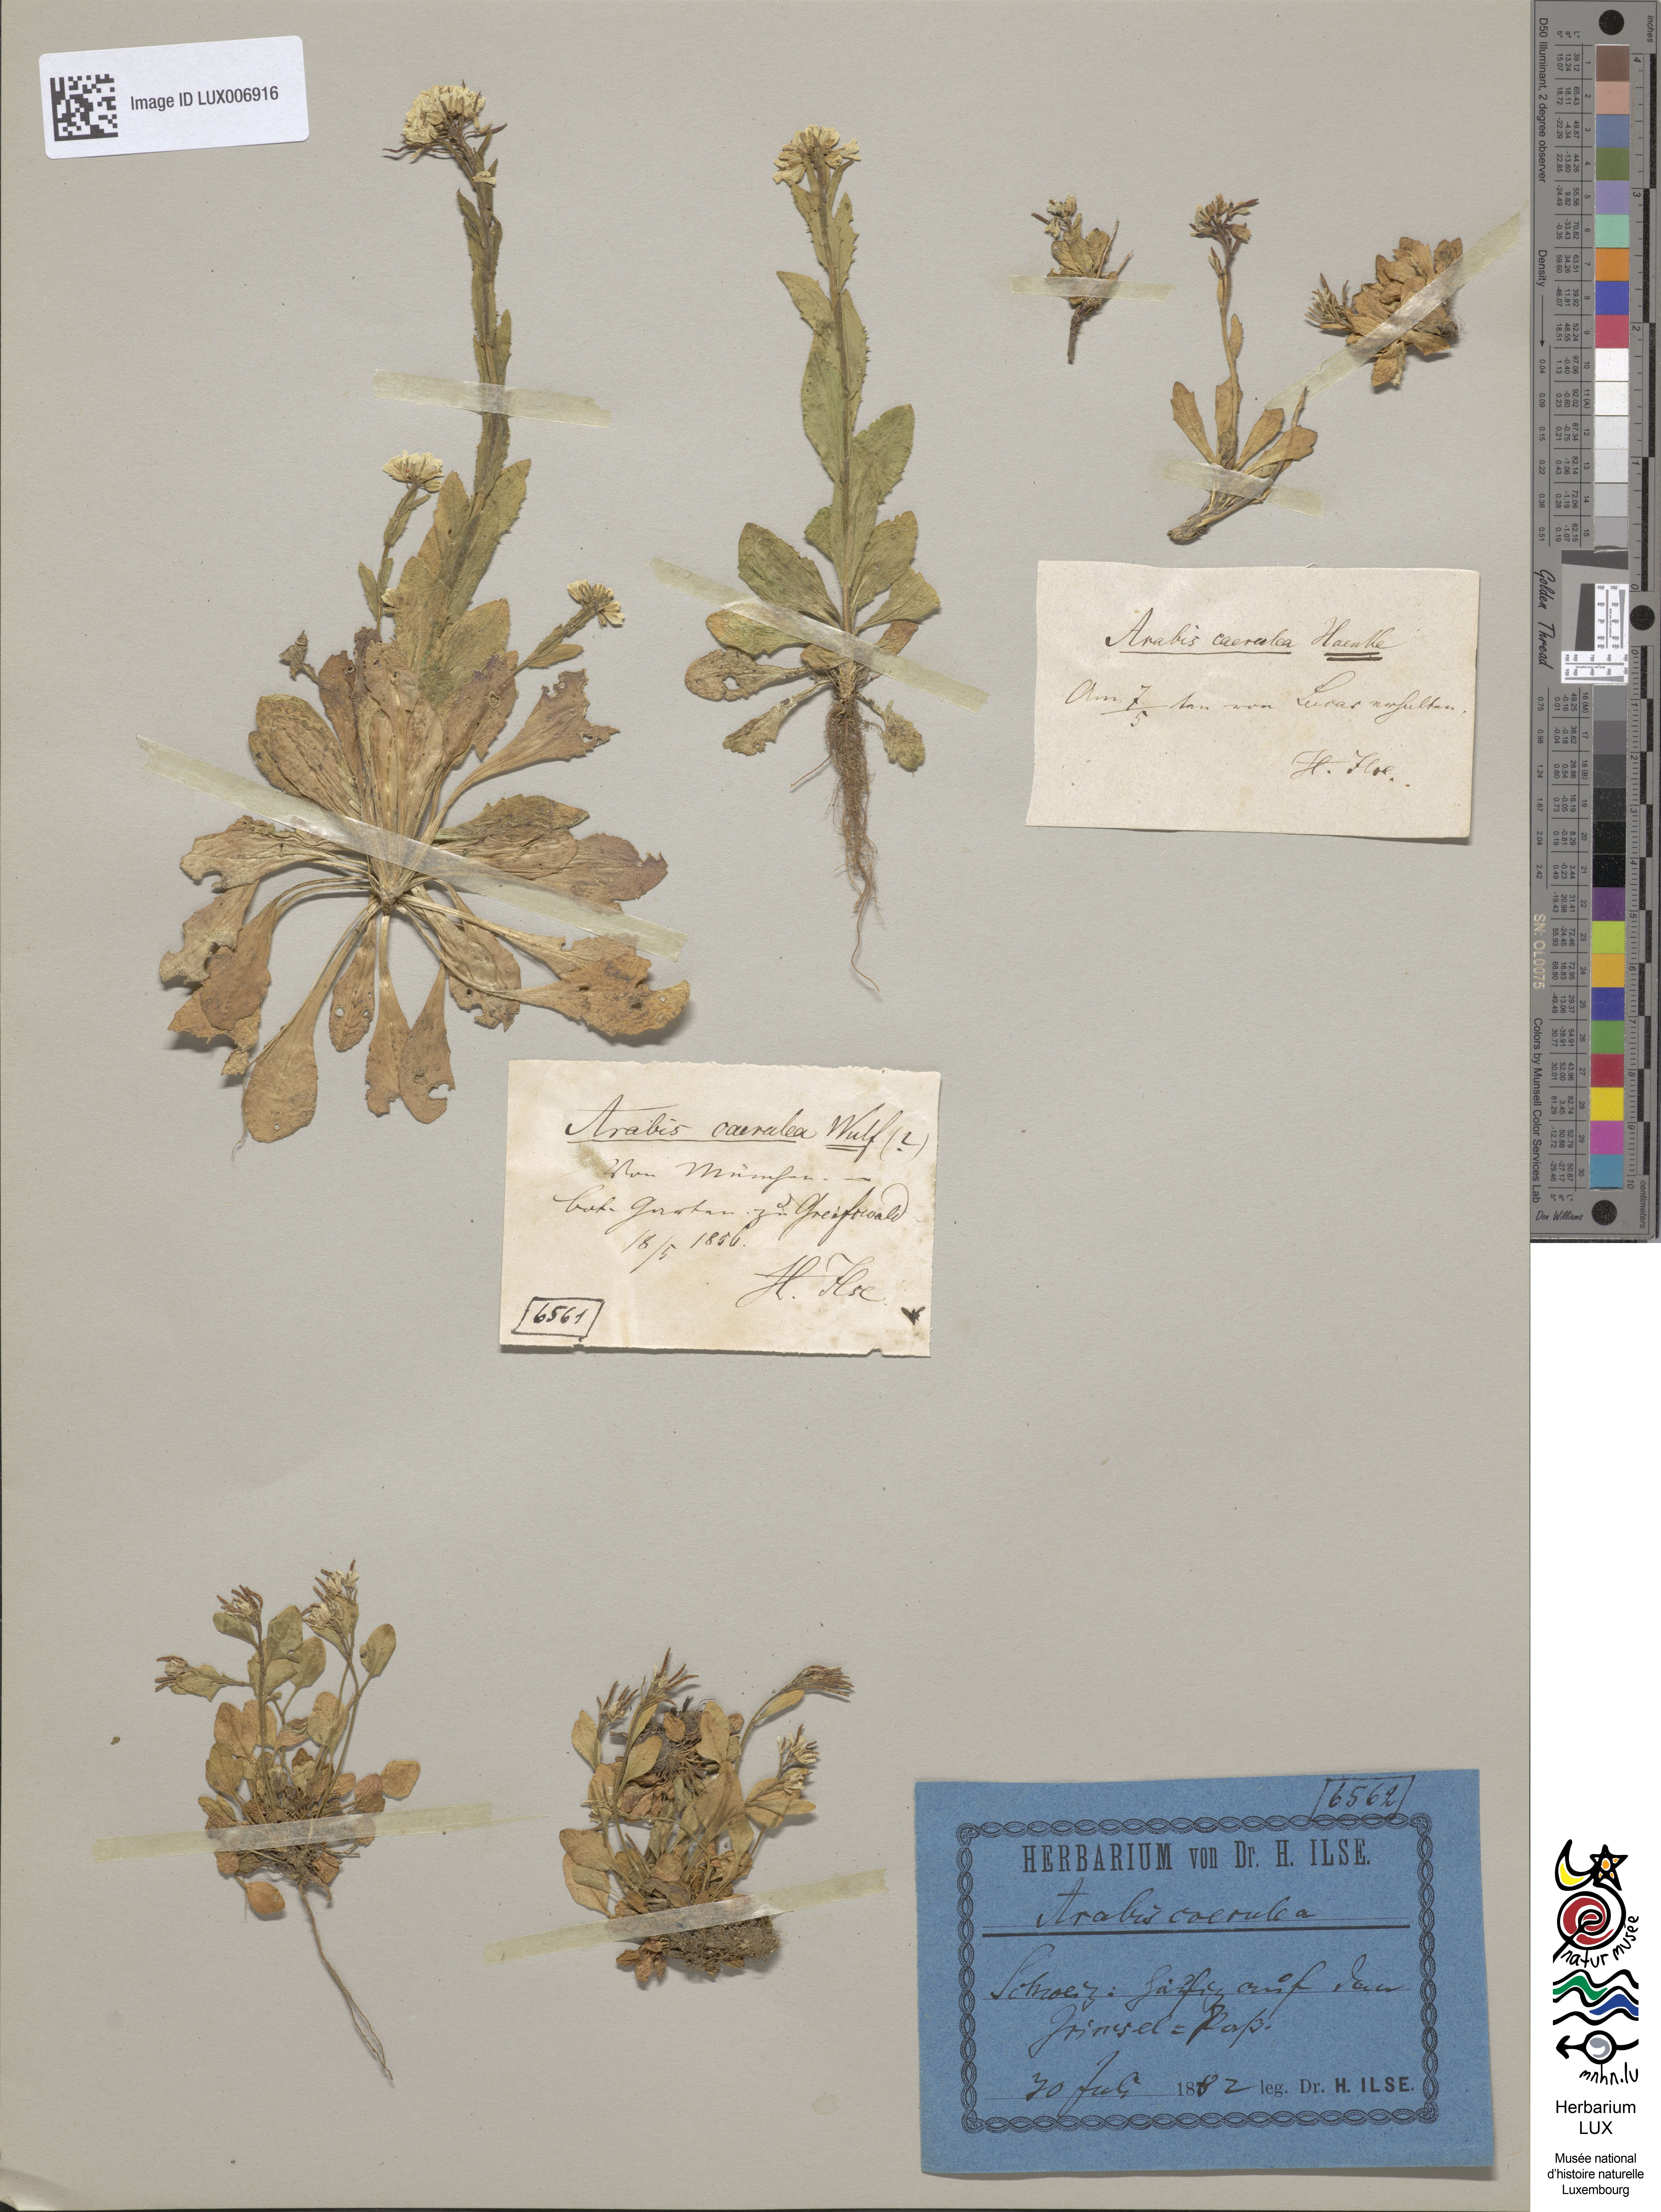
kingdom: Plantae
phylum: Tracheophyta
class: Magnoliopsida
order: Brassicales
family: Brassicaceae
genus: Arabis
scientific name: Arabis caerulea
